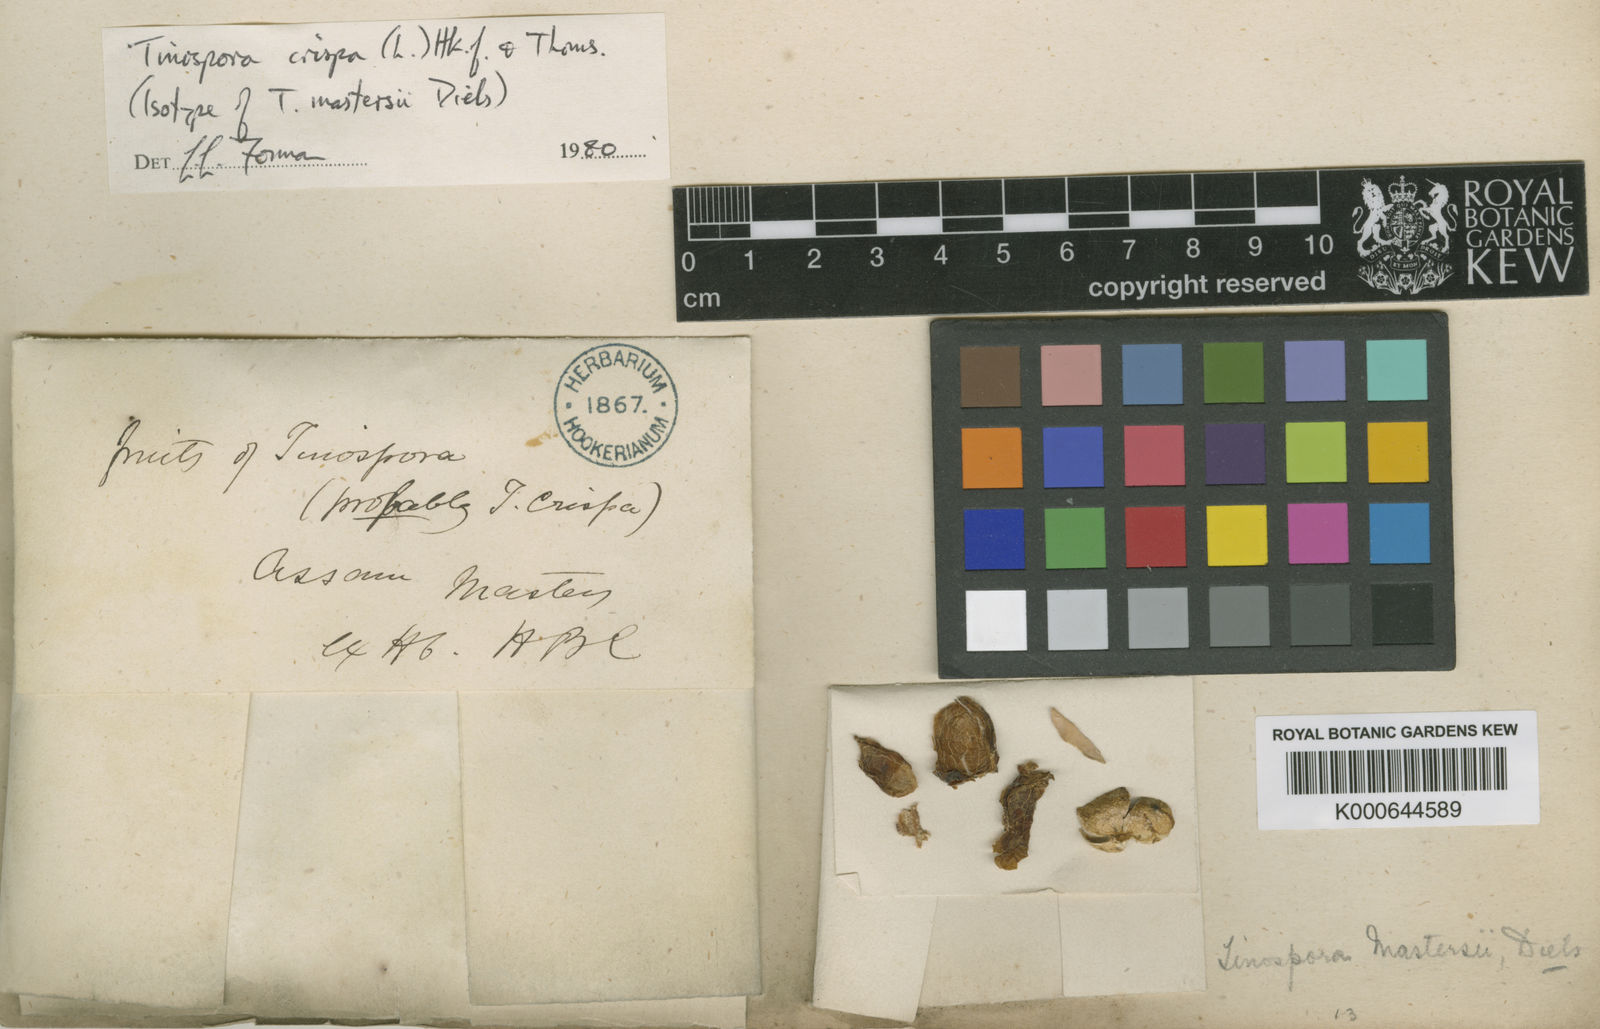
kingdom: Plantae
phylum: Tracheophyta
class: Magnoliopsida
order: Ranunculales
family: Menispermaceae
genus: Tinospora
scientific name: Tinospora crispa
